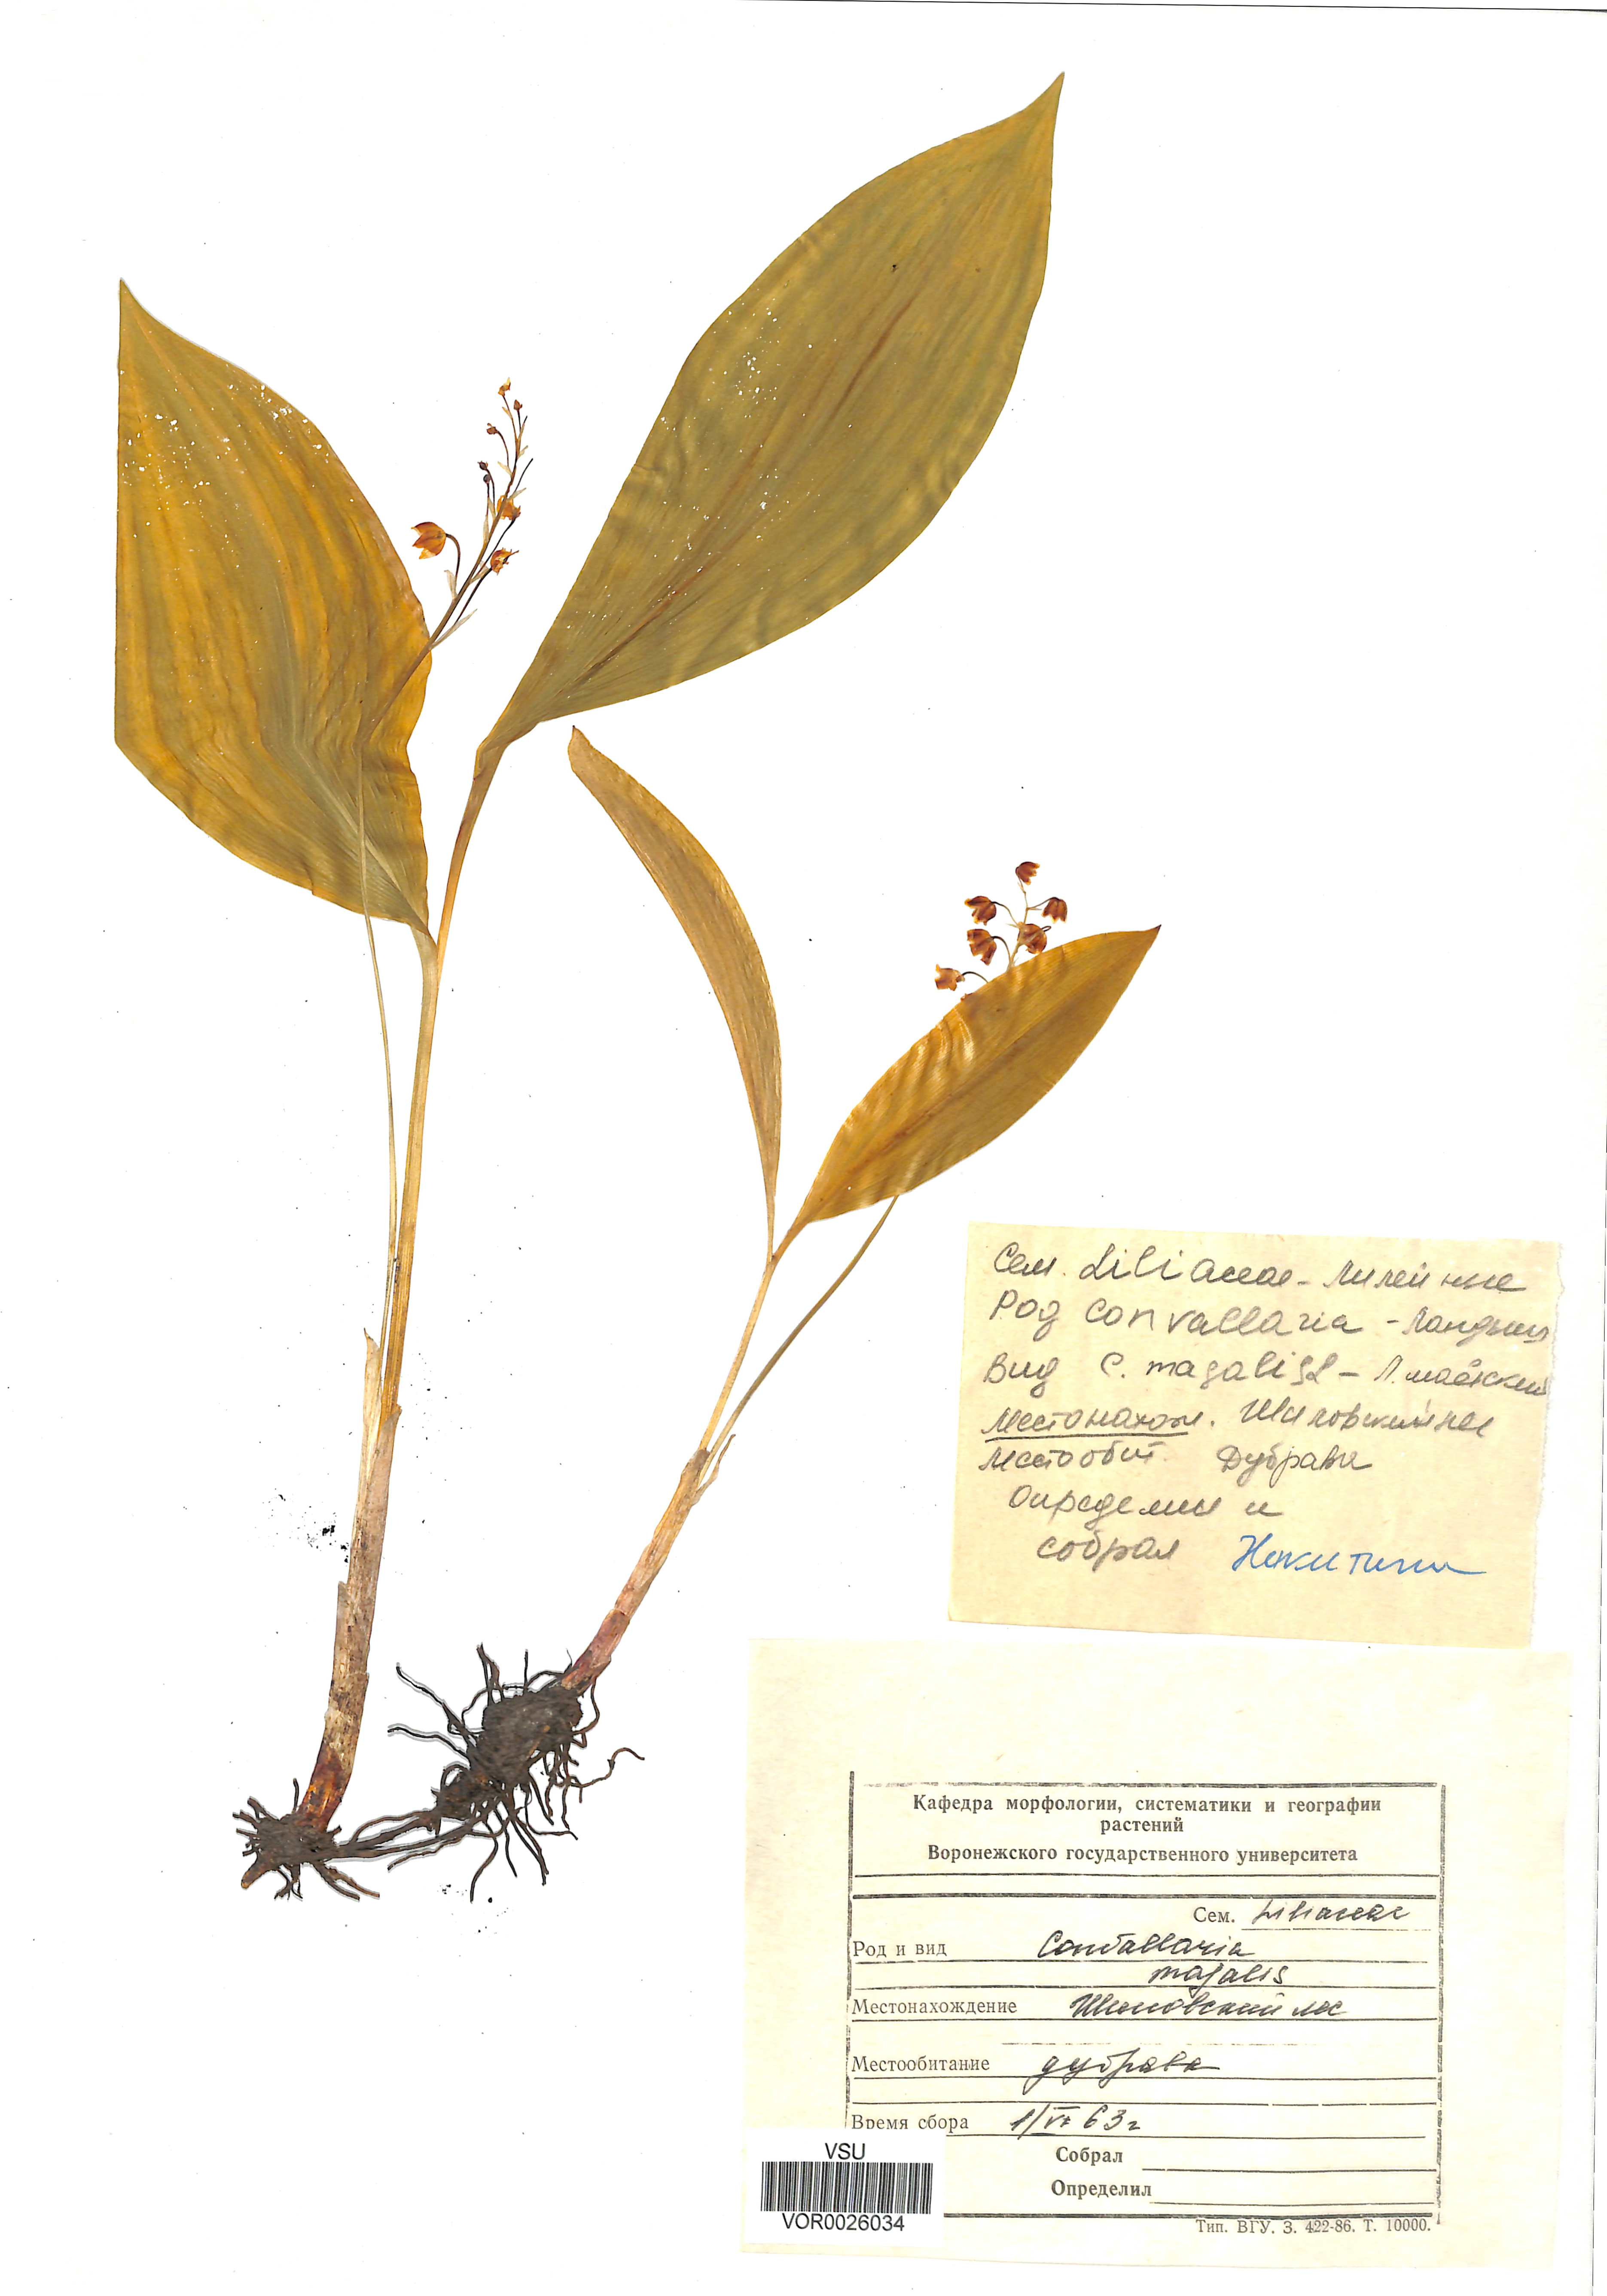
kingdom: Plantae
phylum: Tracheophyta
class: Liliopsida
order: Asparagales
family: Asparagaceae
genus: Convallaria
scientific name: Convallaria majalis
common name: Lily-of-the-valley
